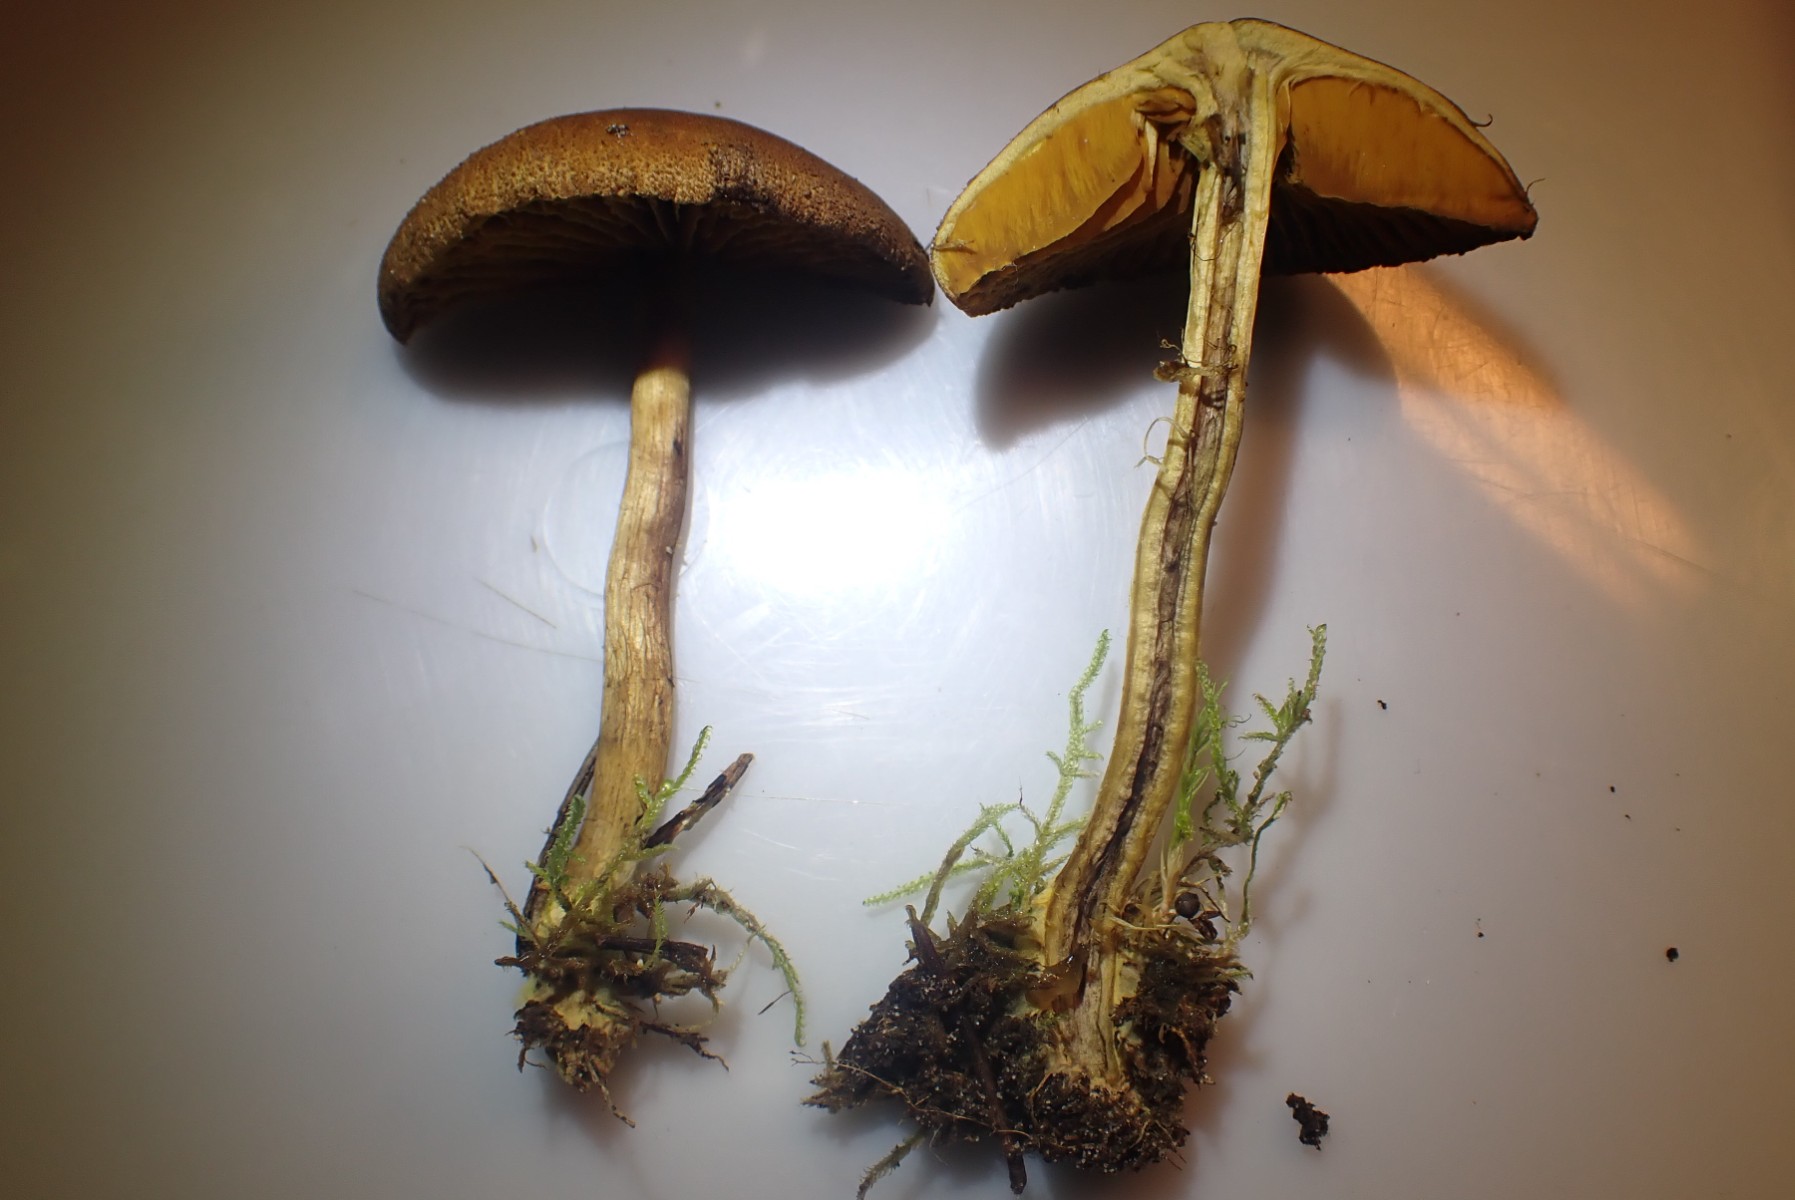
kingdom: Fungi
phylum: Basidiomycota
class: Agaricomycetes
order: Agaricales
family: Cortinariaceae
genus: Cortinarius
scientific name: Cortinarius
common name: gulbladet slørhat
